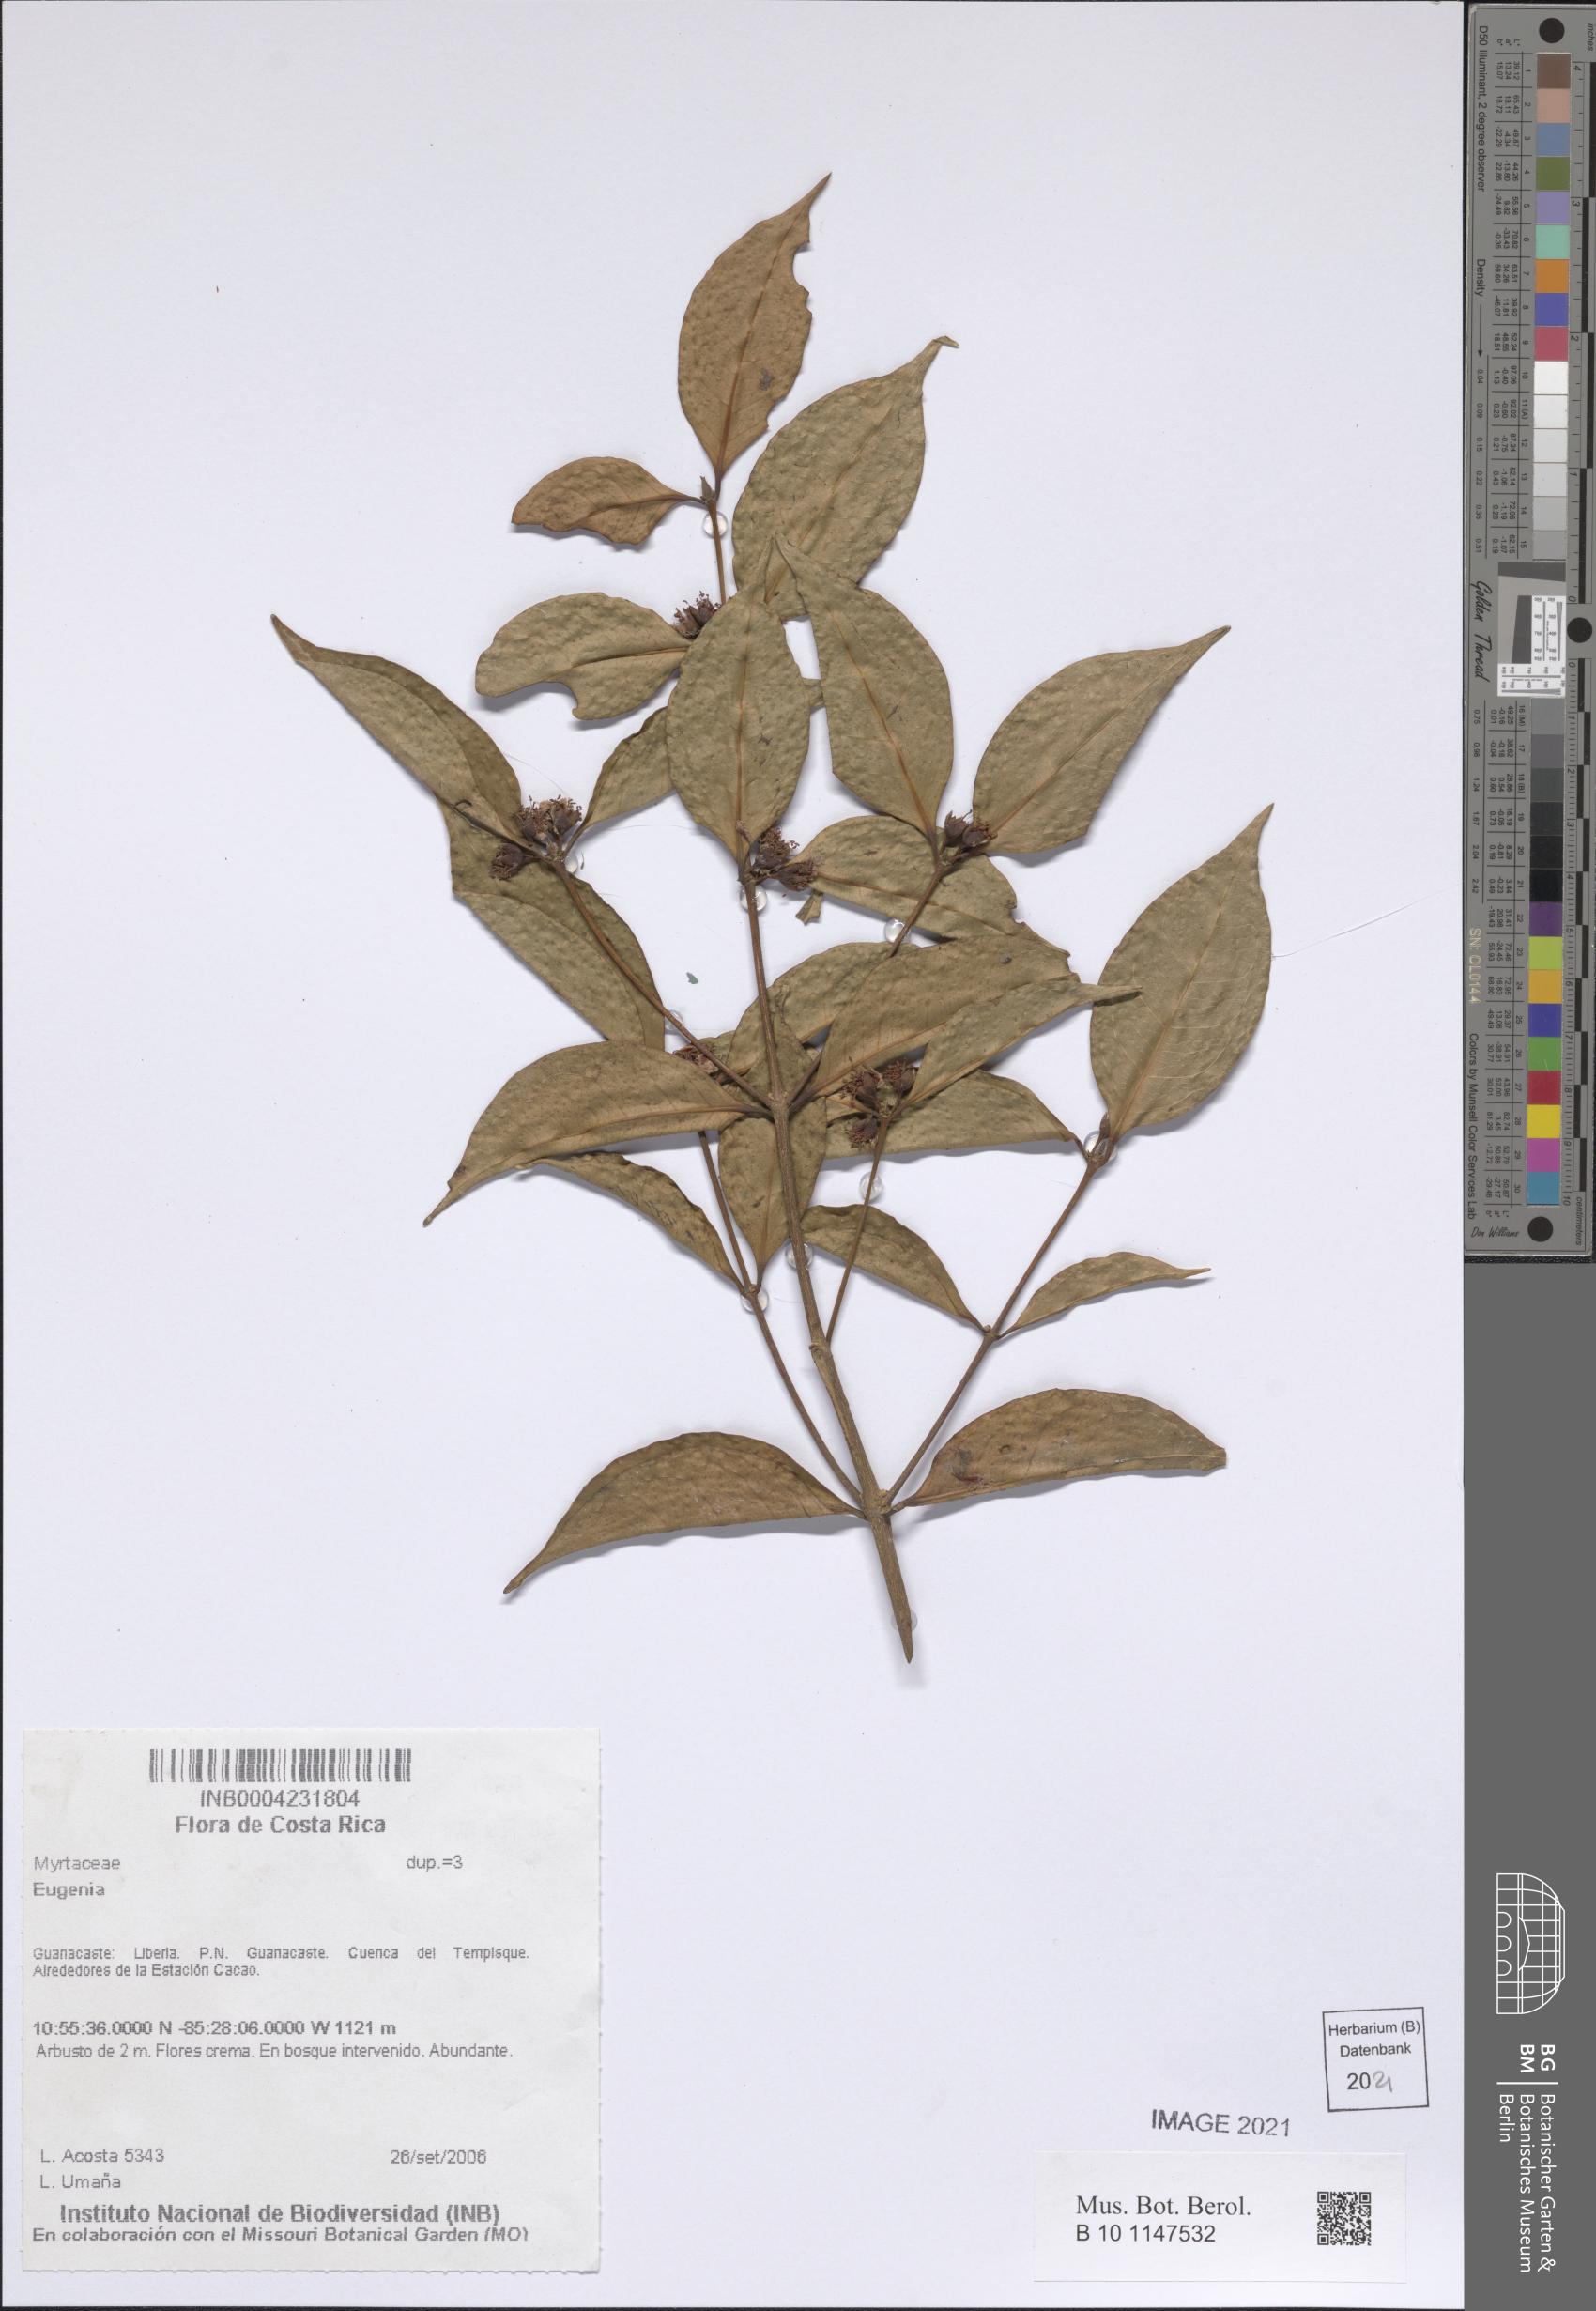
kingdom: Plantae
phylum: Tracheophyta
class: Magnoliopsida
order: Myrtales
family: Myrtaceae
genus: Eugenia
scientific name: Eugenia
